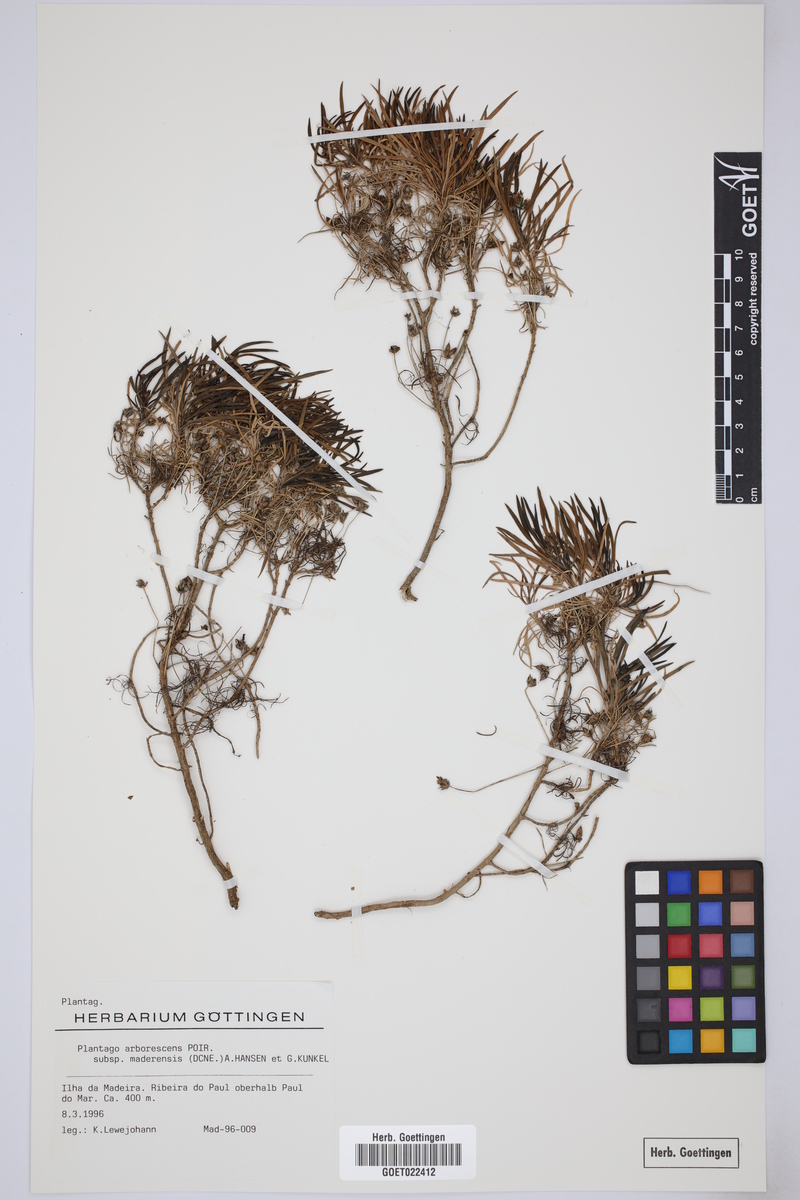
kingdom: Plantae
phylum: Tracheophyta
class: Magnoliopsida
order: Lamiales
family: Plantaginaceae
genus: Plantago
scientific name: Plantago arborescens
